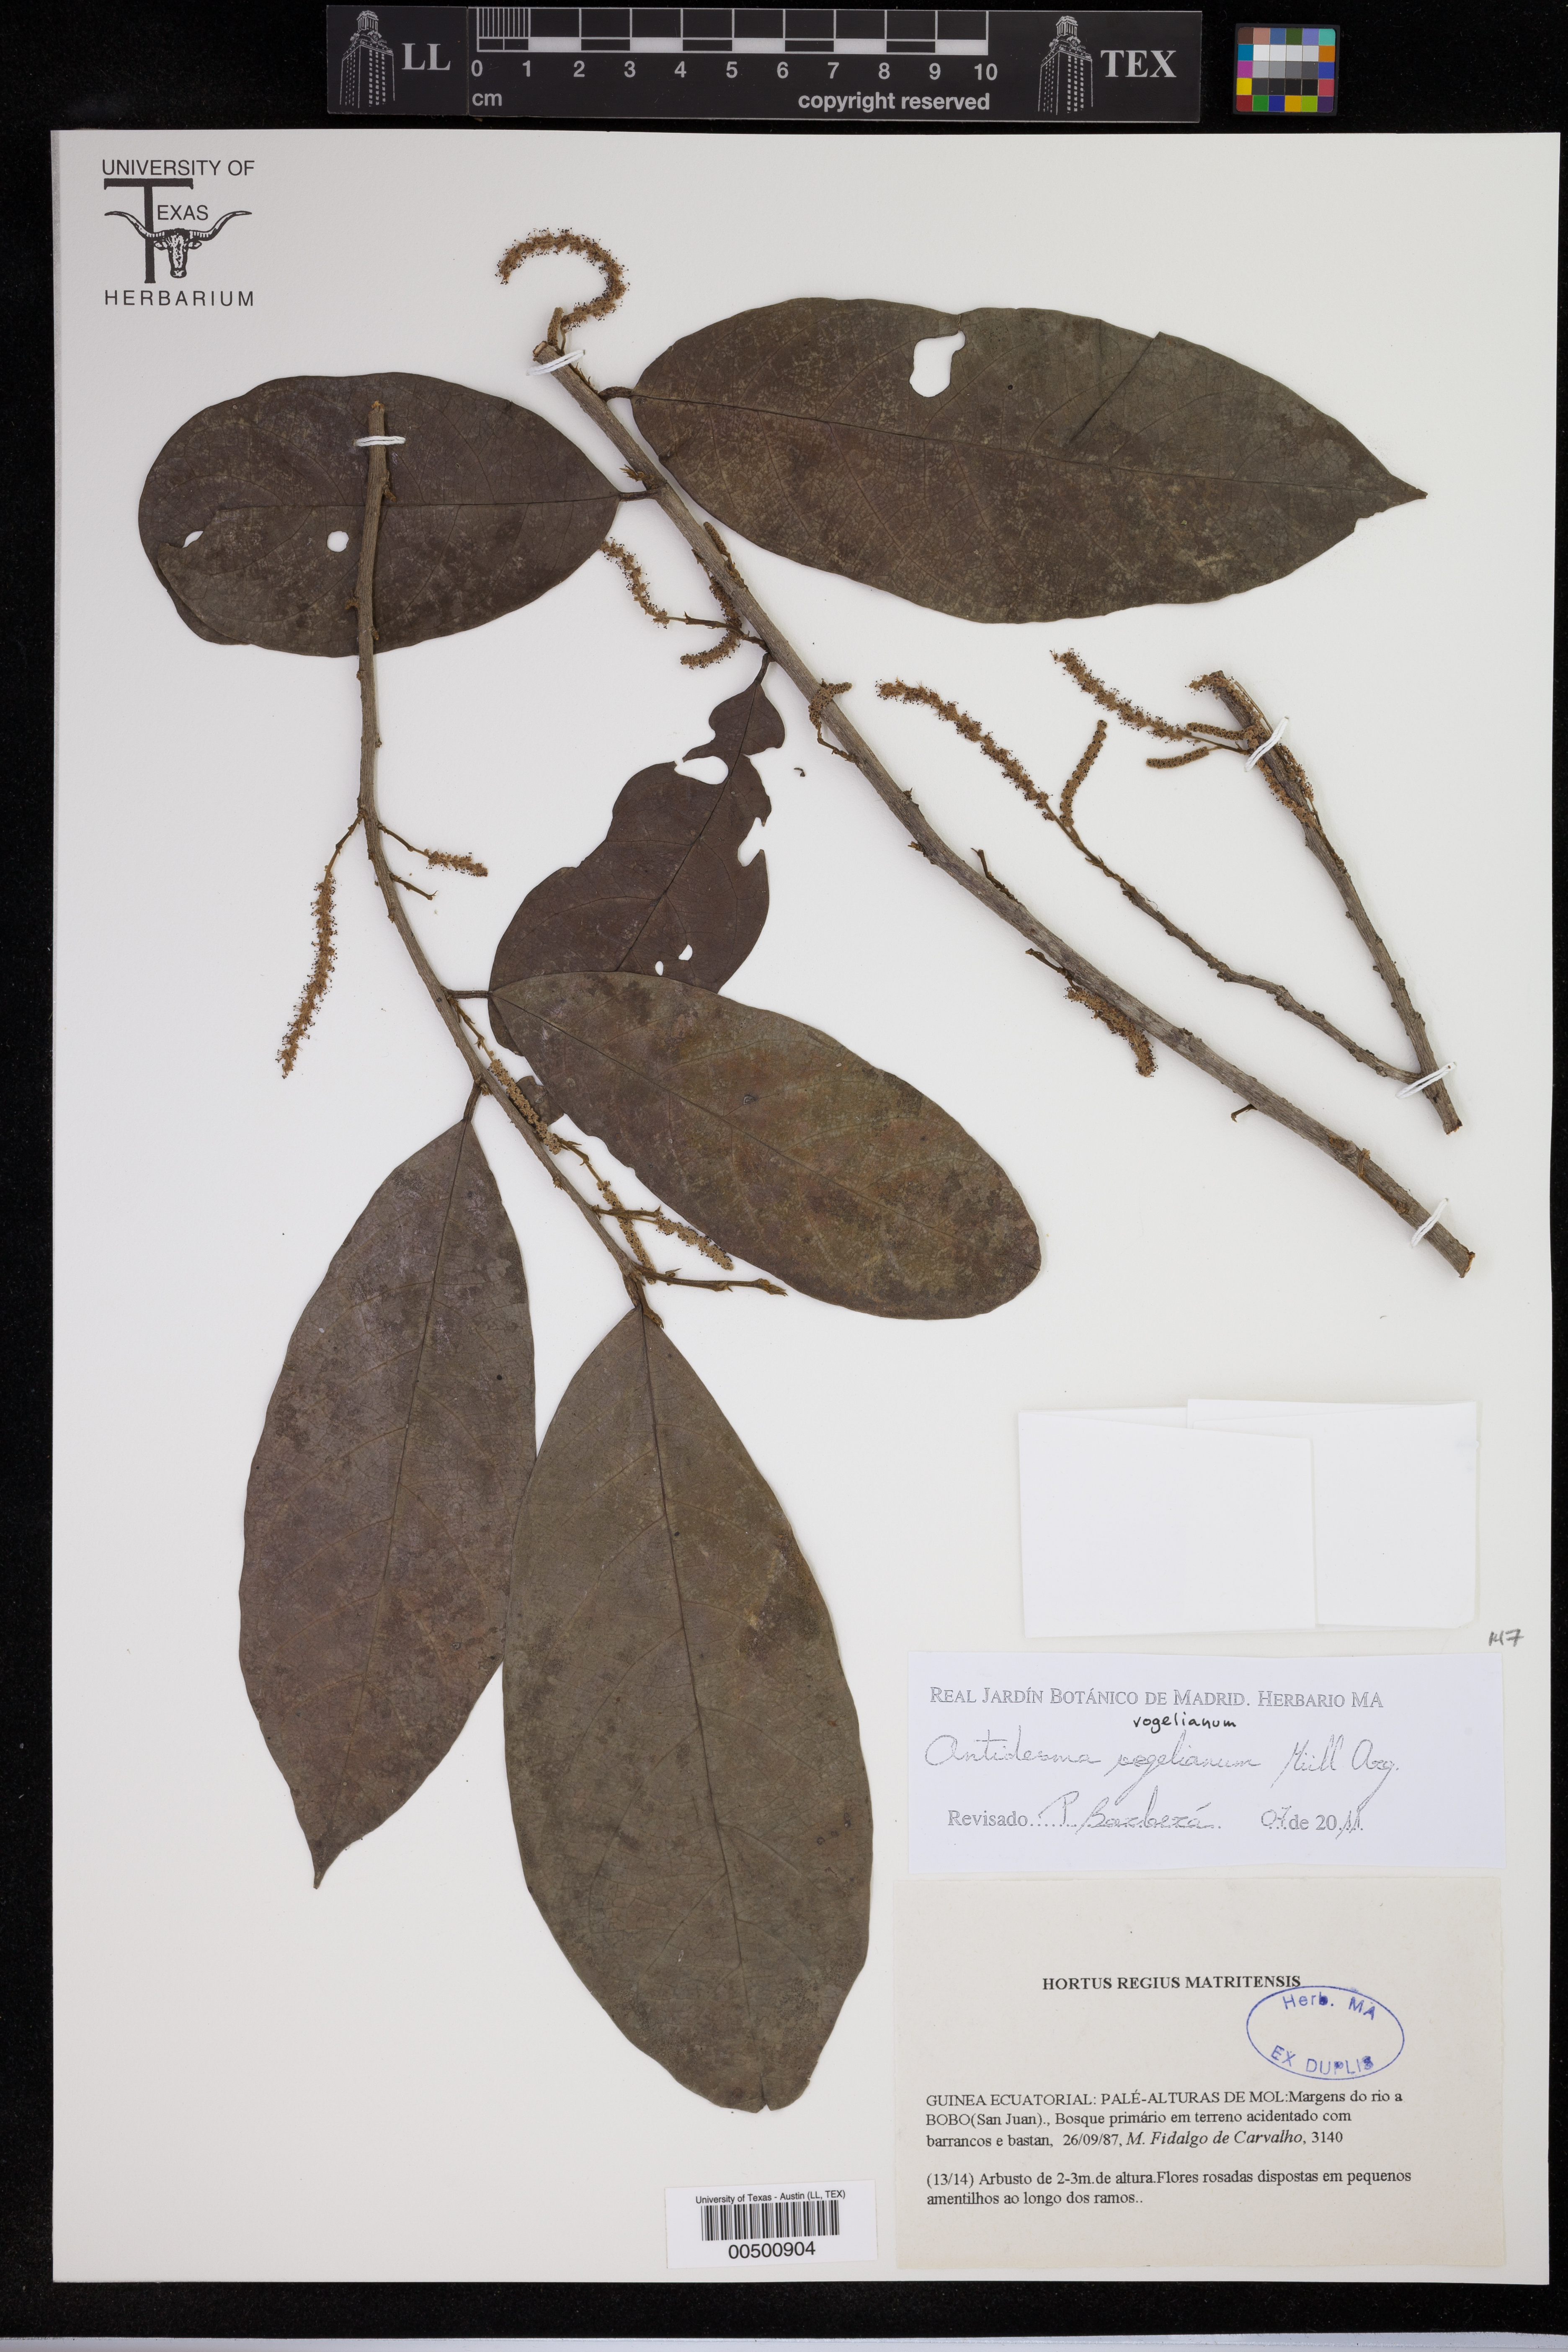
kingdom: Plantae
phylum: Tracheophyta
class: Magnoliopsida
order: Malpighiales
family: Phyllanthaceae
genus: Antidesma
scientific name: Antidesma vogelianum
